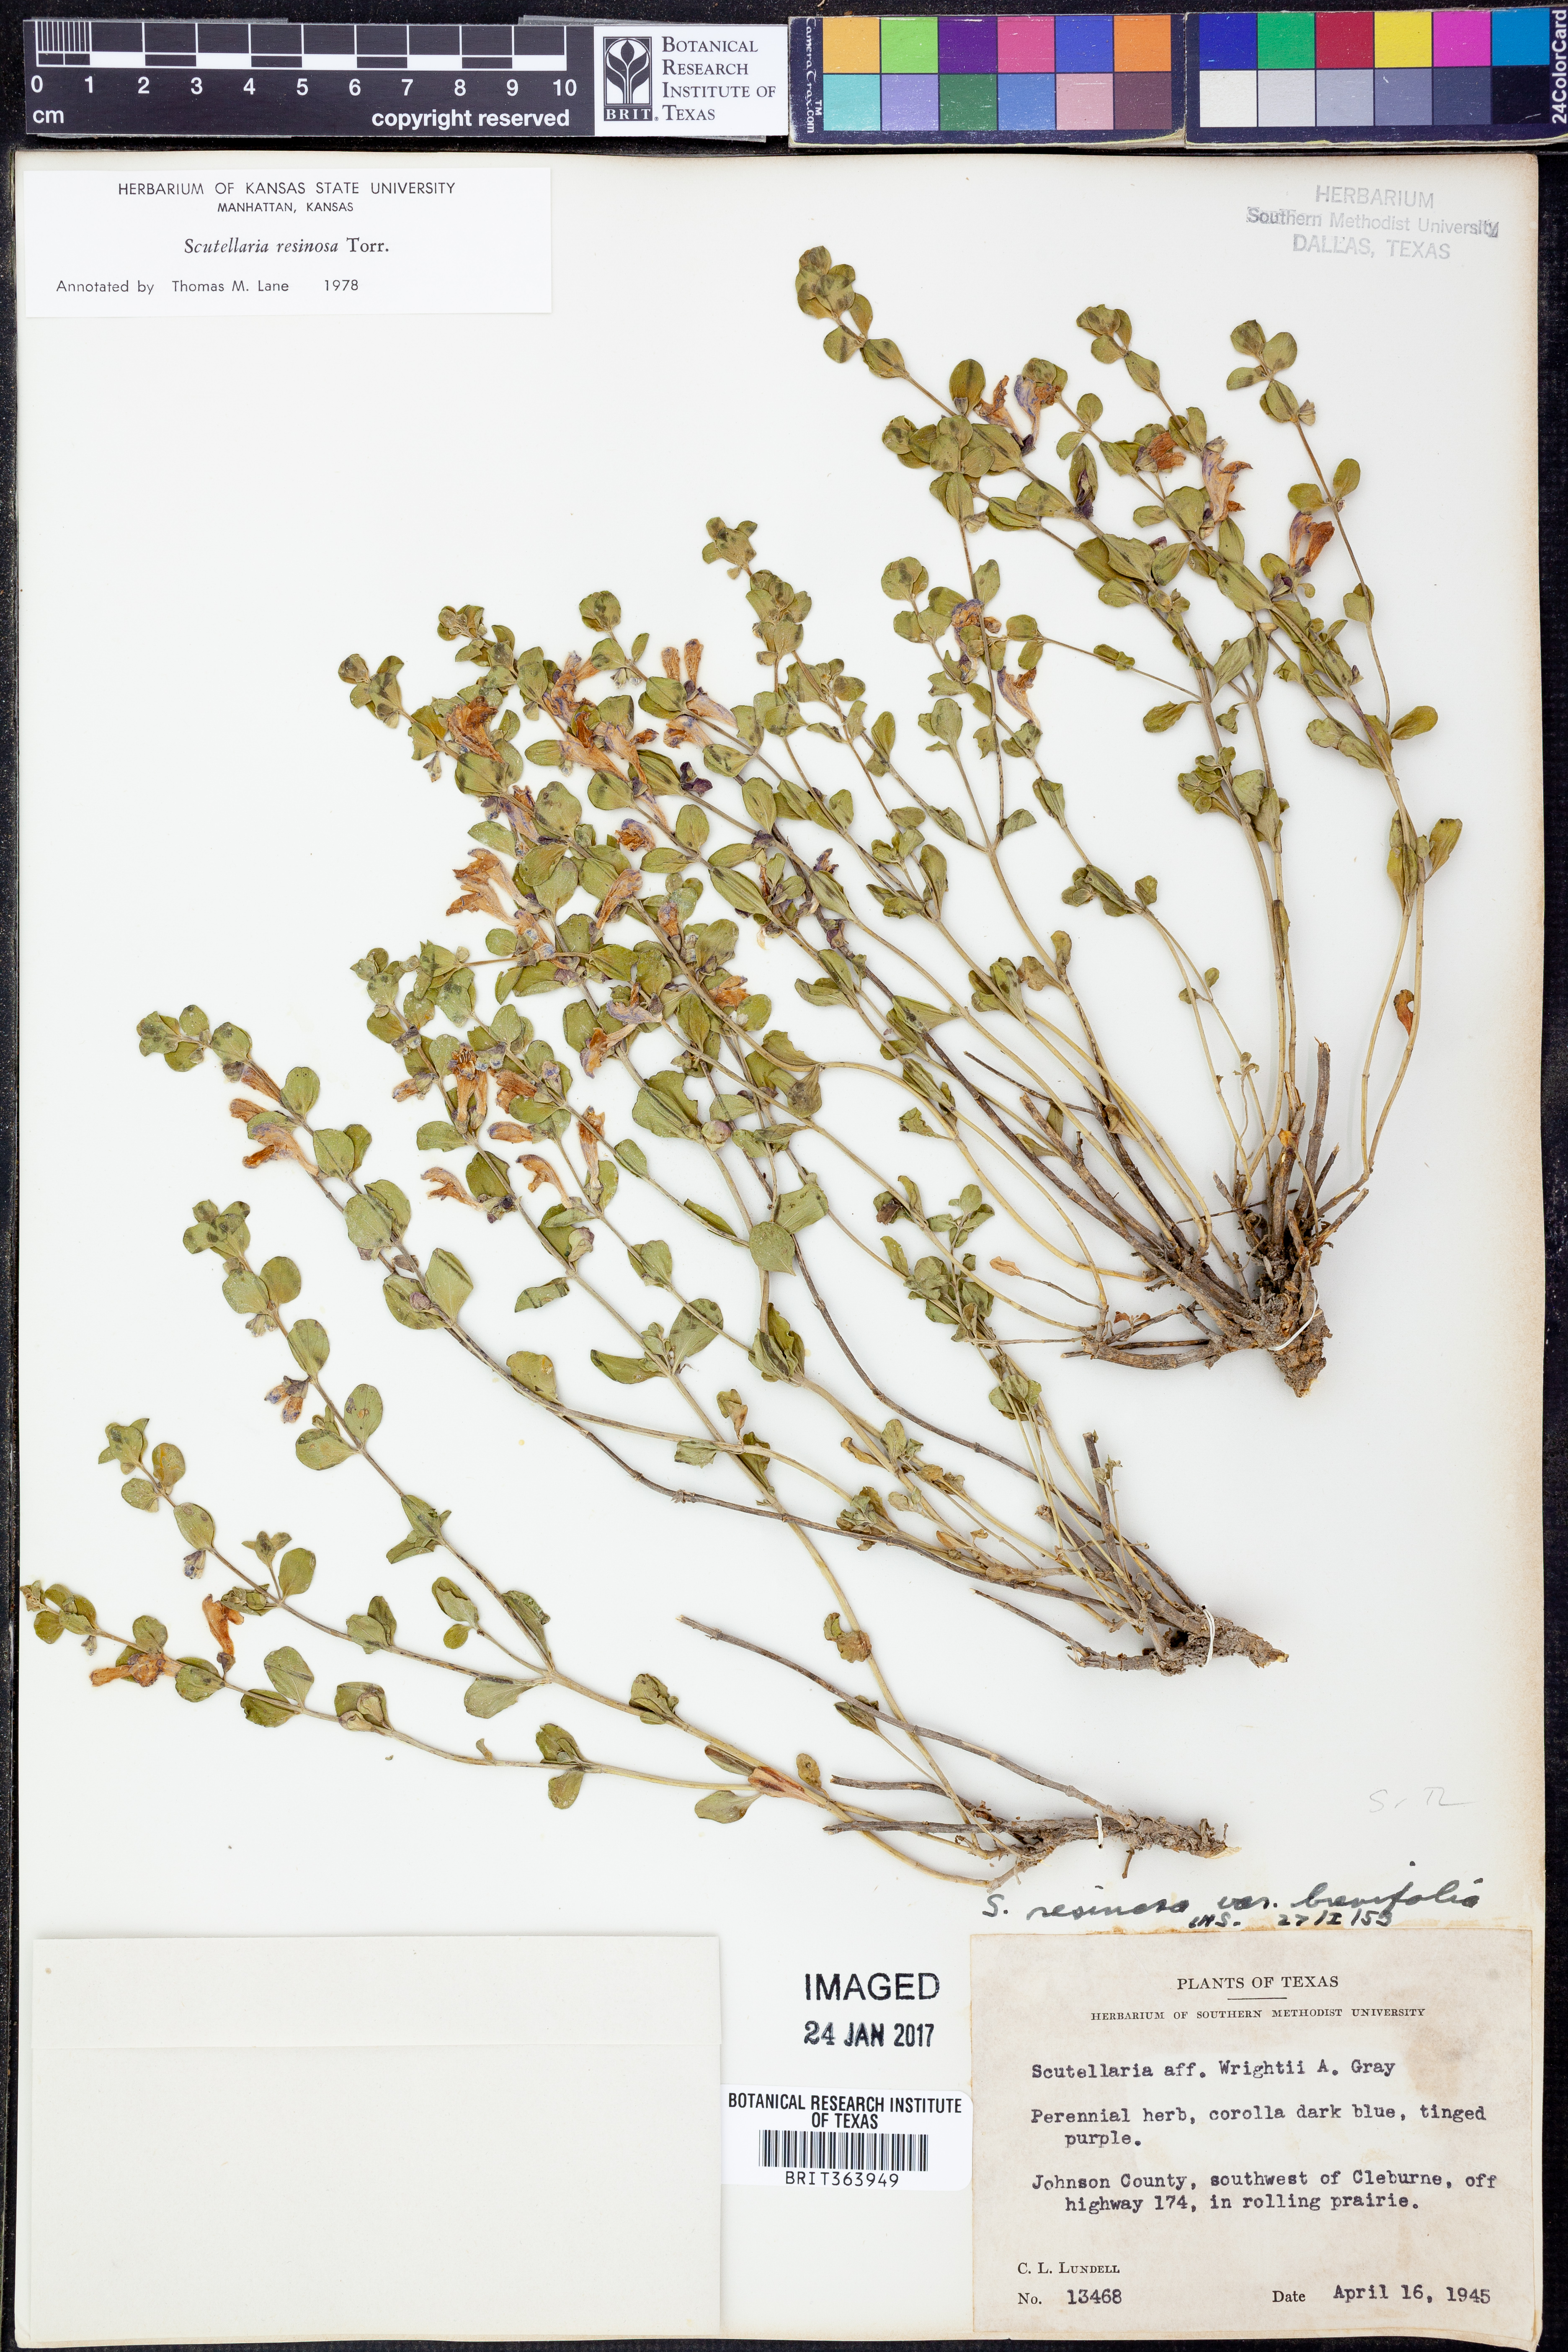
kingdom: Plantae
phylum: Tracheophyta
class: Magnoliopsida
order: Lamiales
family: Lamiaceae
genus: Scutellaria
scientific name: Scutellaria resinosa
